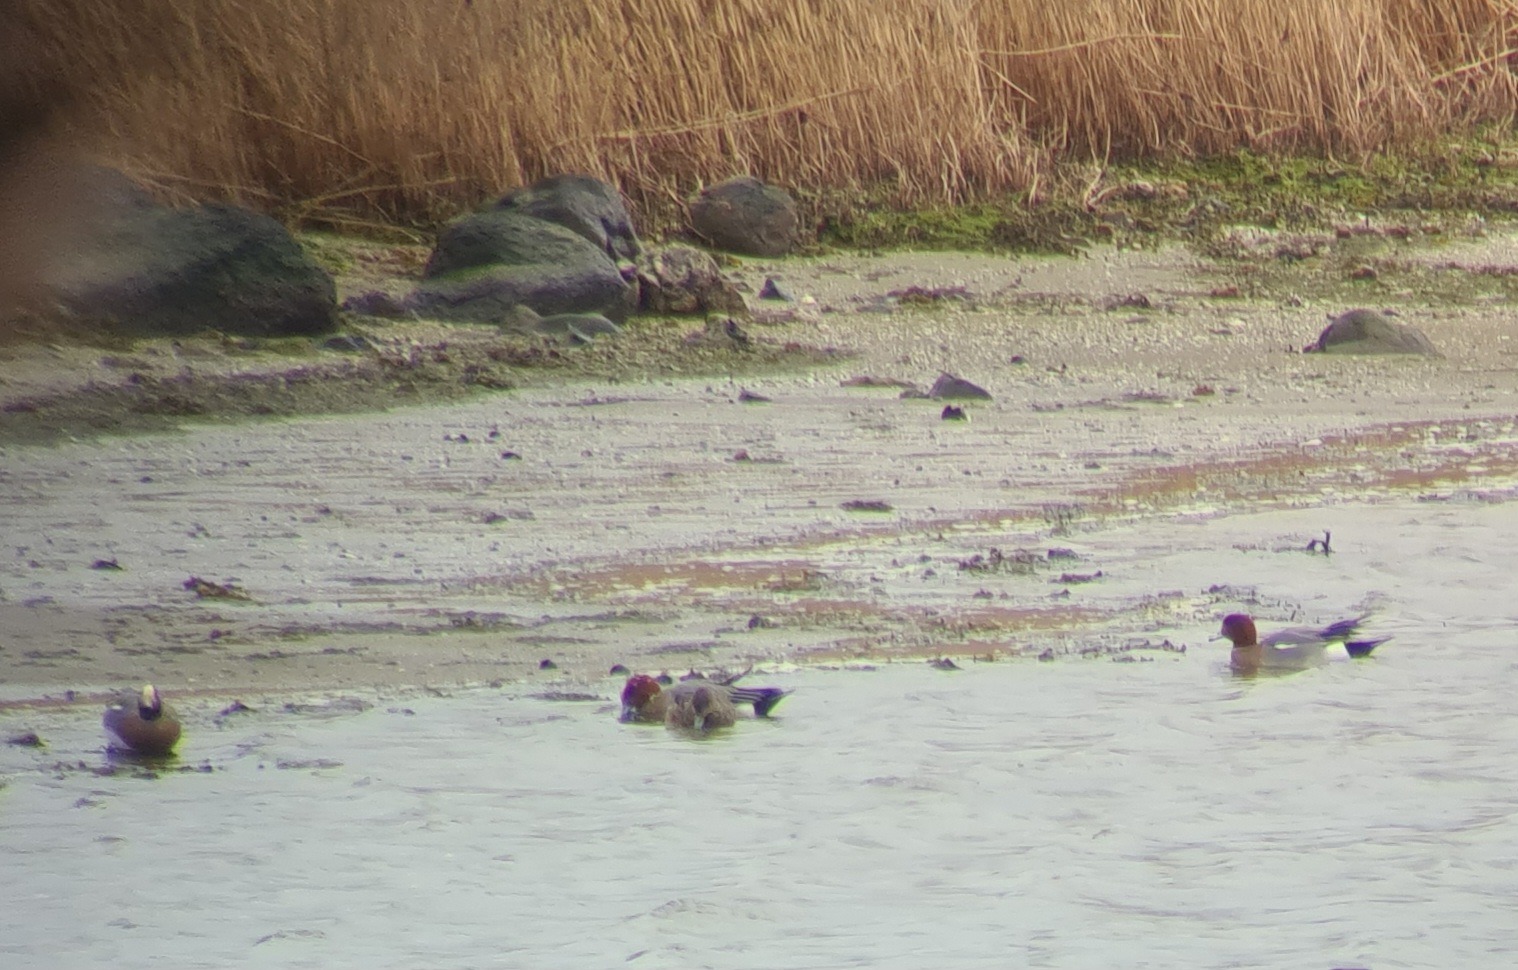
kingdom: Animalia
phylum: Chordata
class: Aves
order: Anseriformes
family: Anatidae
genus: Mareca
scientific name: Mareca penelope
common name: Pibeand
